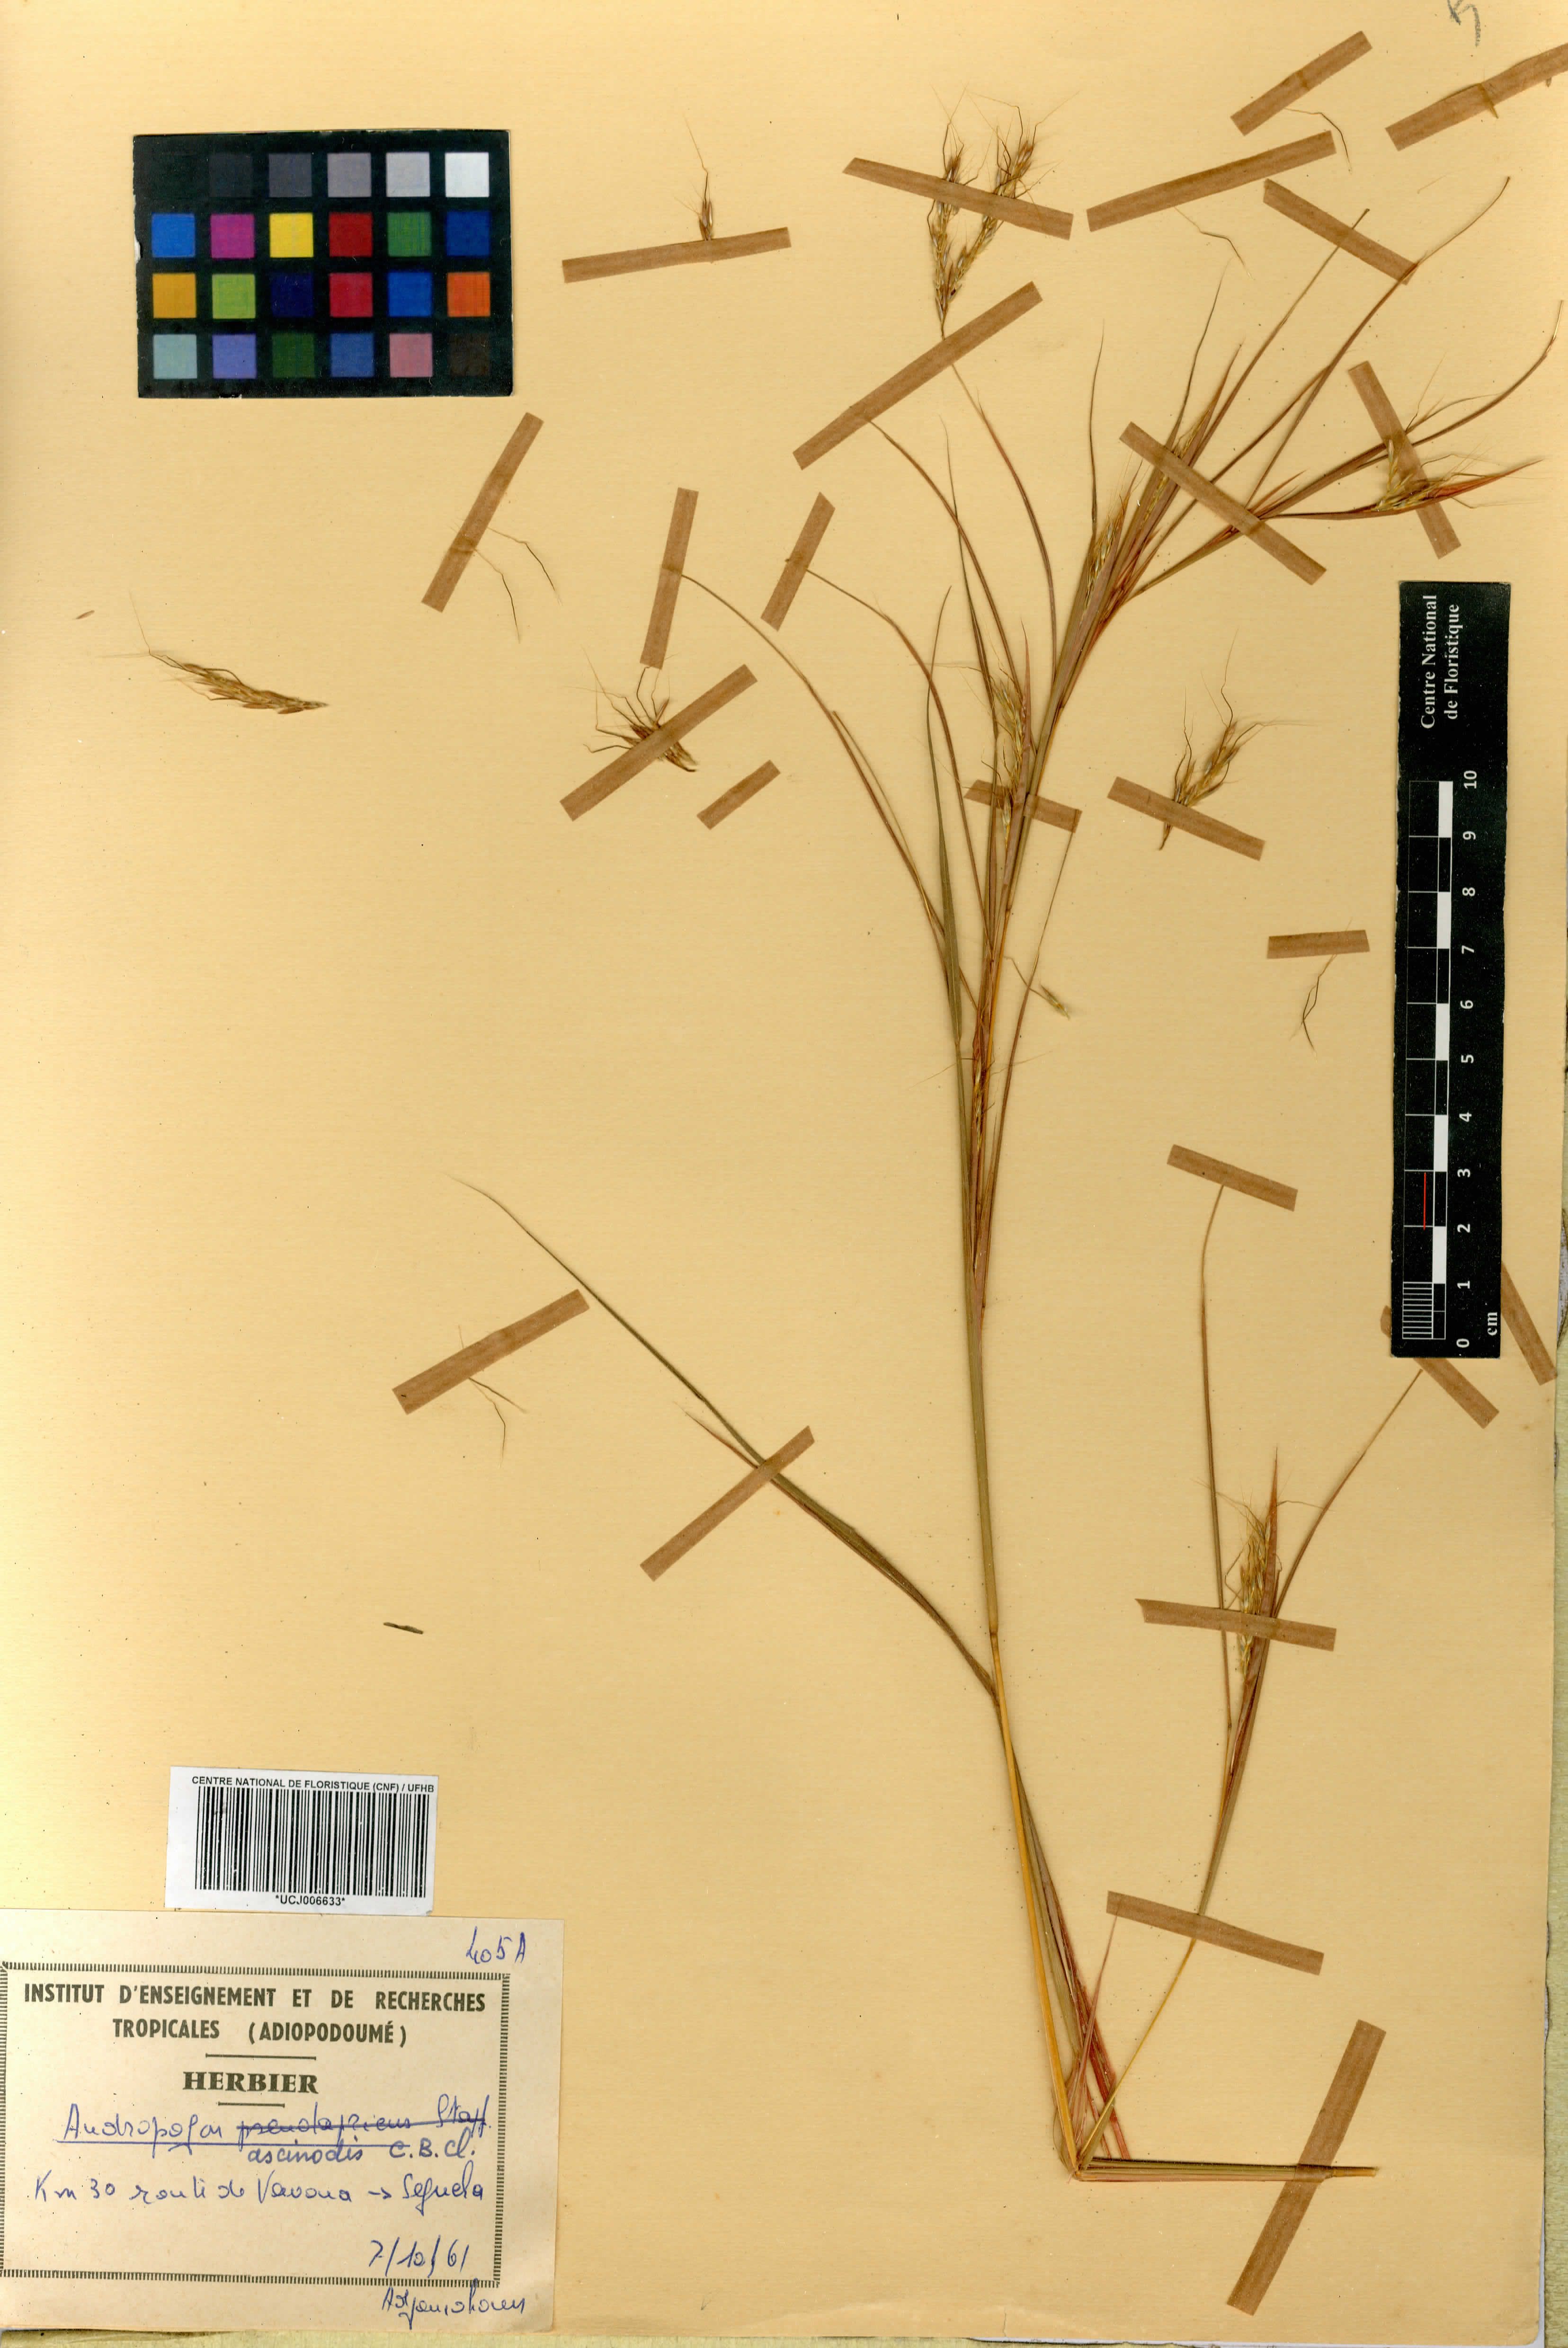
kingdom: Plantae
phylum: Tracheophyta
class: Liliopsida
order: Poales
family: Poaceae
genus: Andropogon
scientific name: Andropogon chinensis
